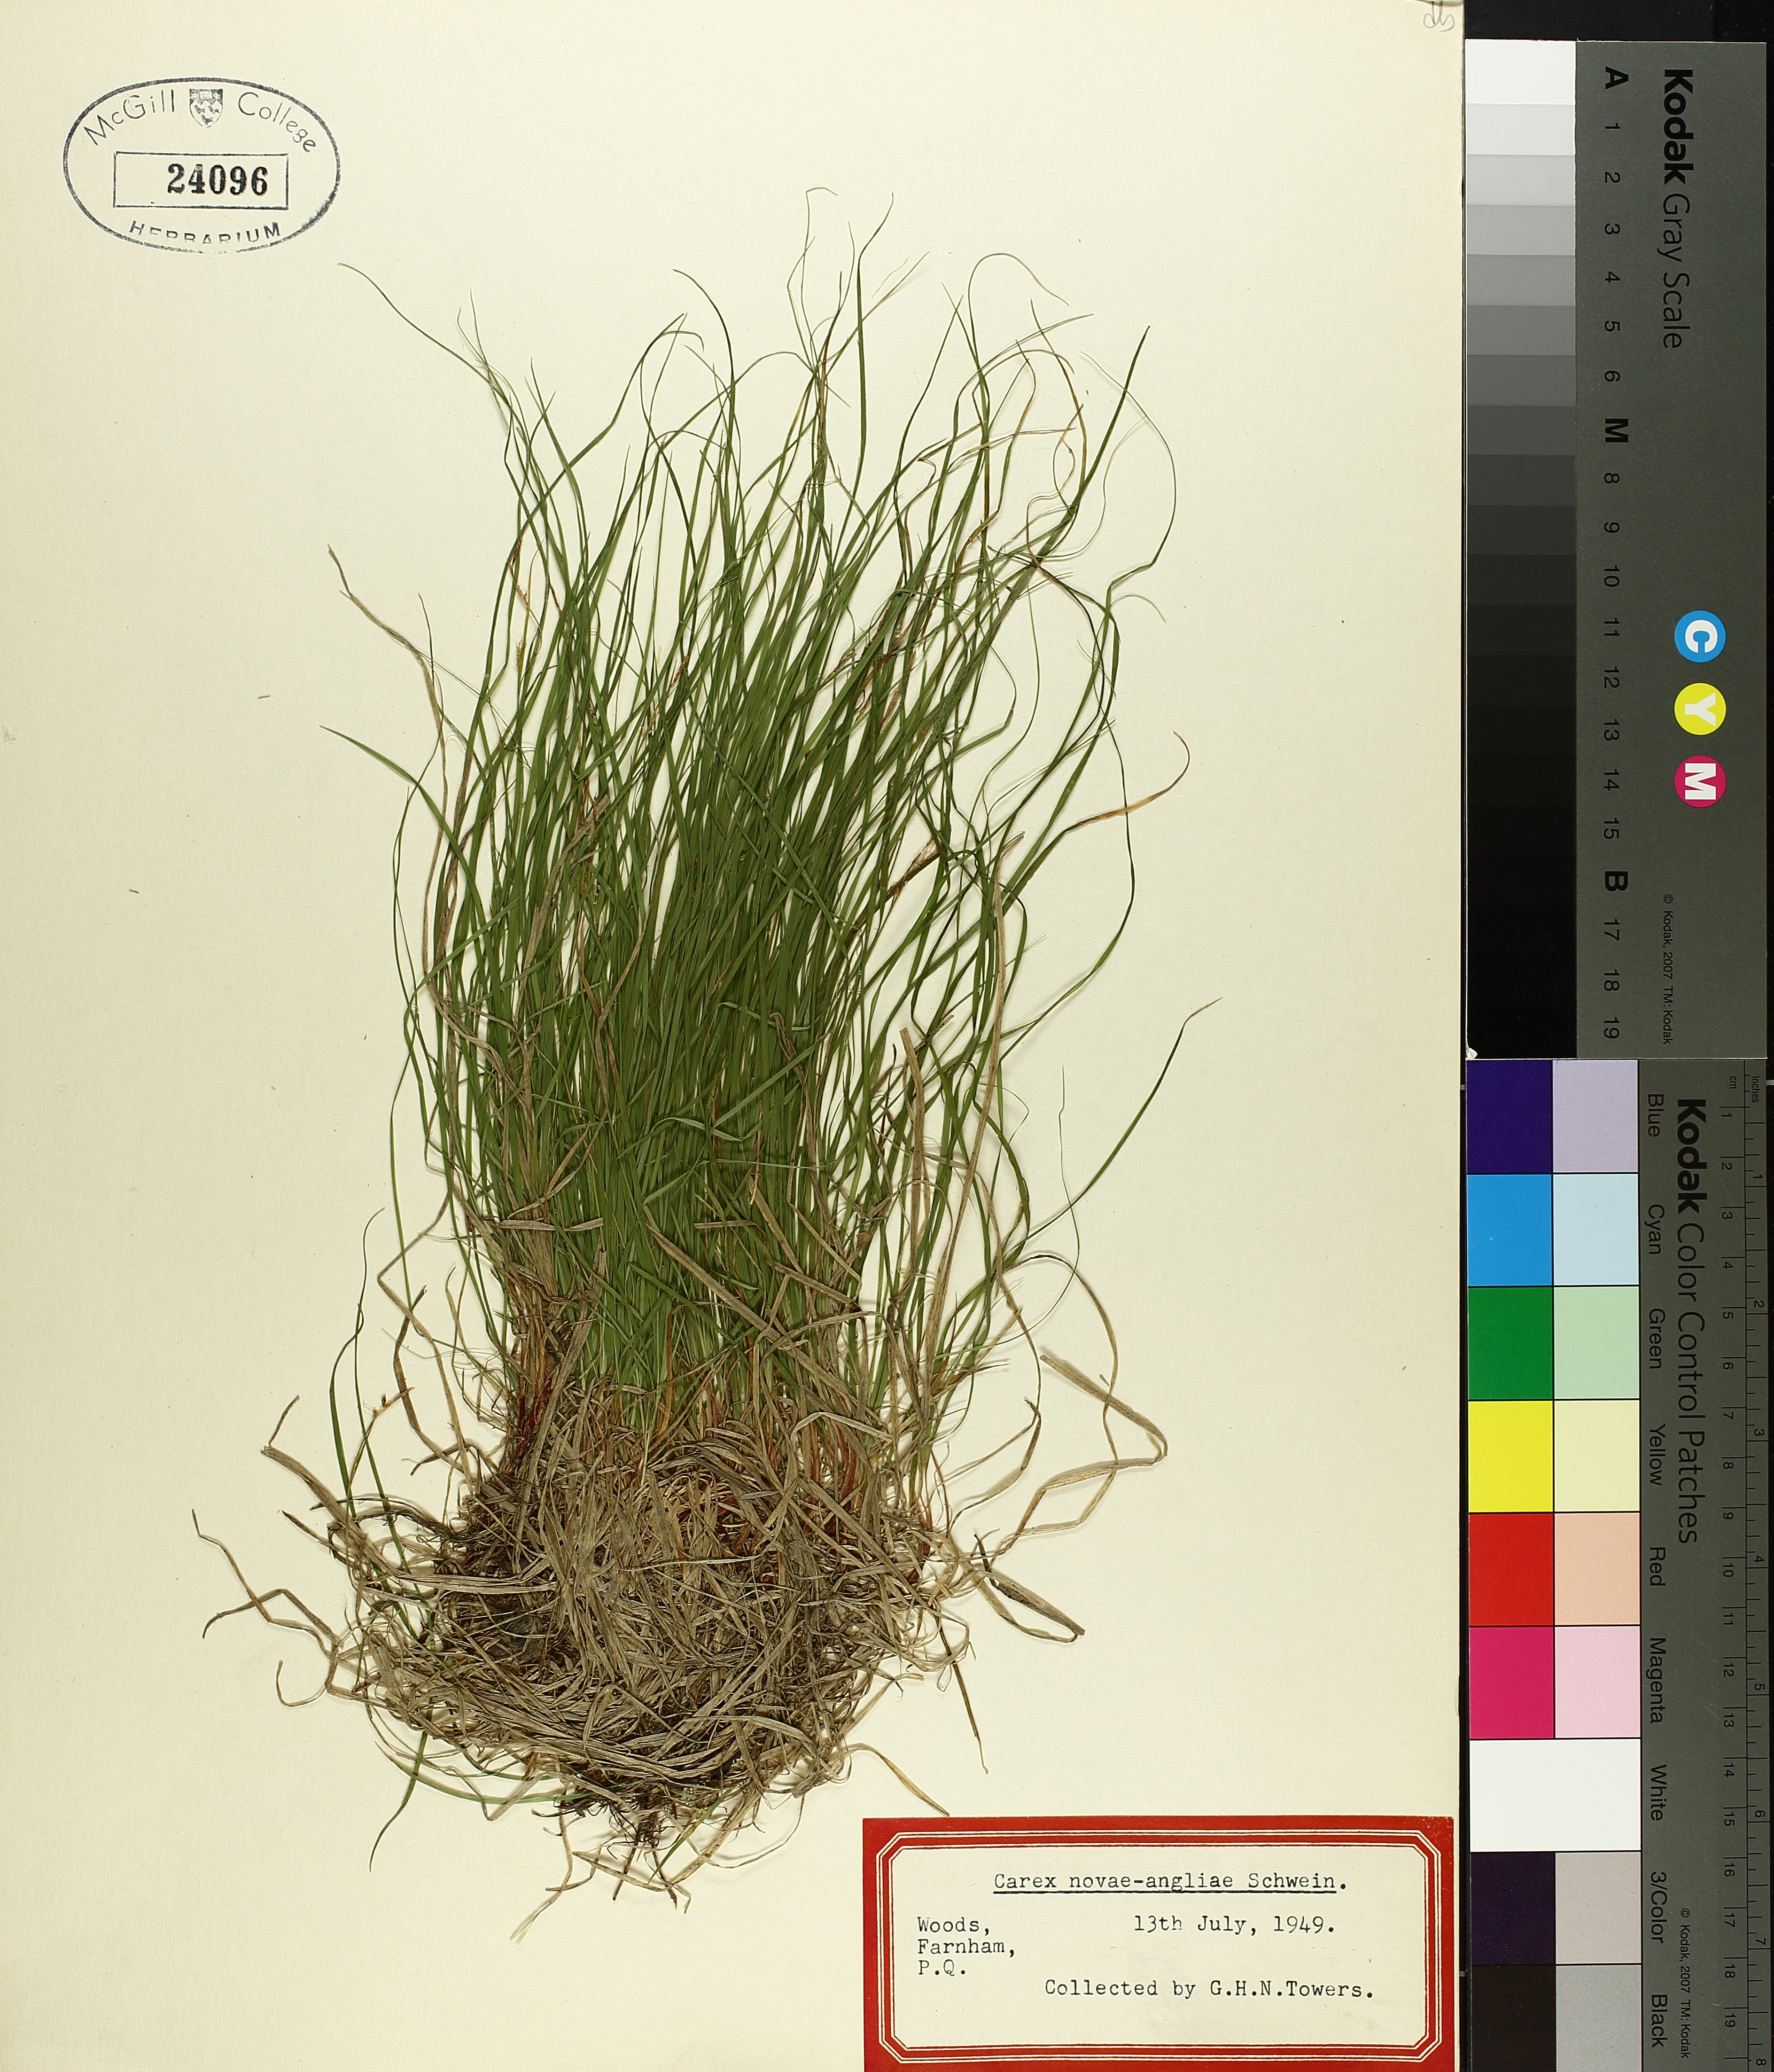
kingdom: Plantae
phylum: Tracheophyta
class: Liliopsida
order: Poales
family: Cyperaceae
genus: Carex
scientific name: Carex novae-angliae
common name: New england sedge
